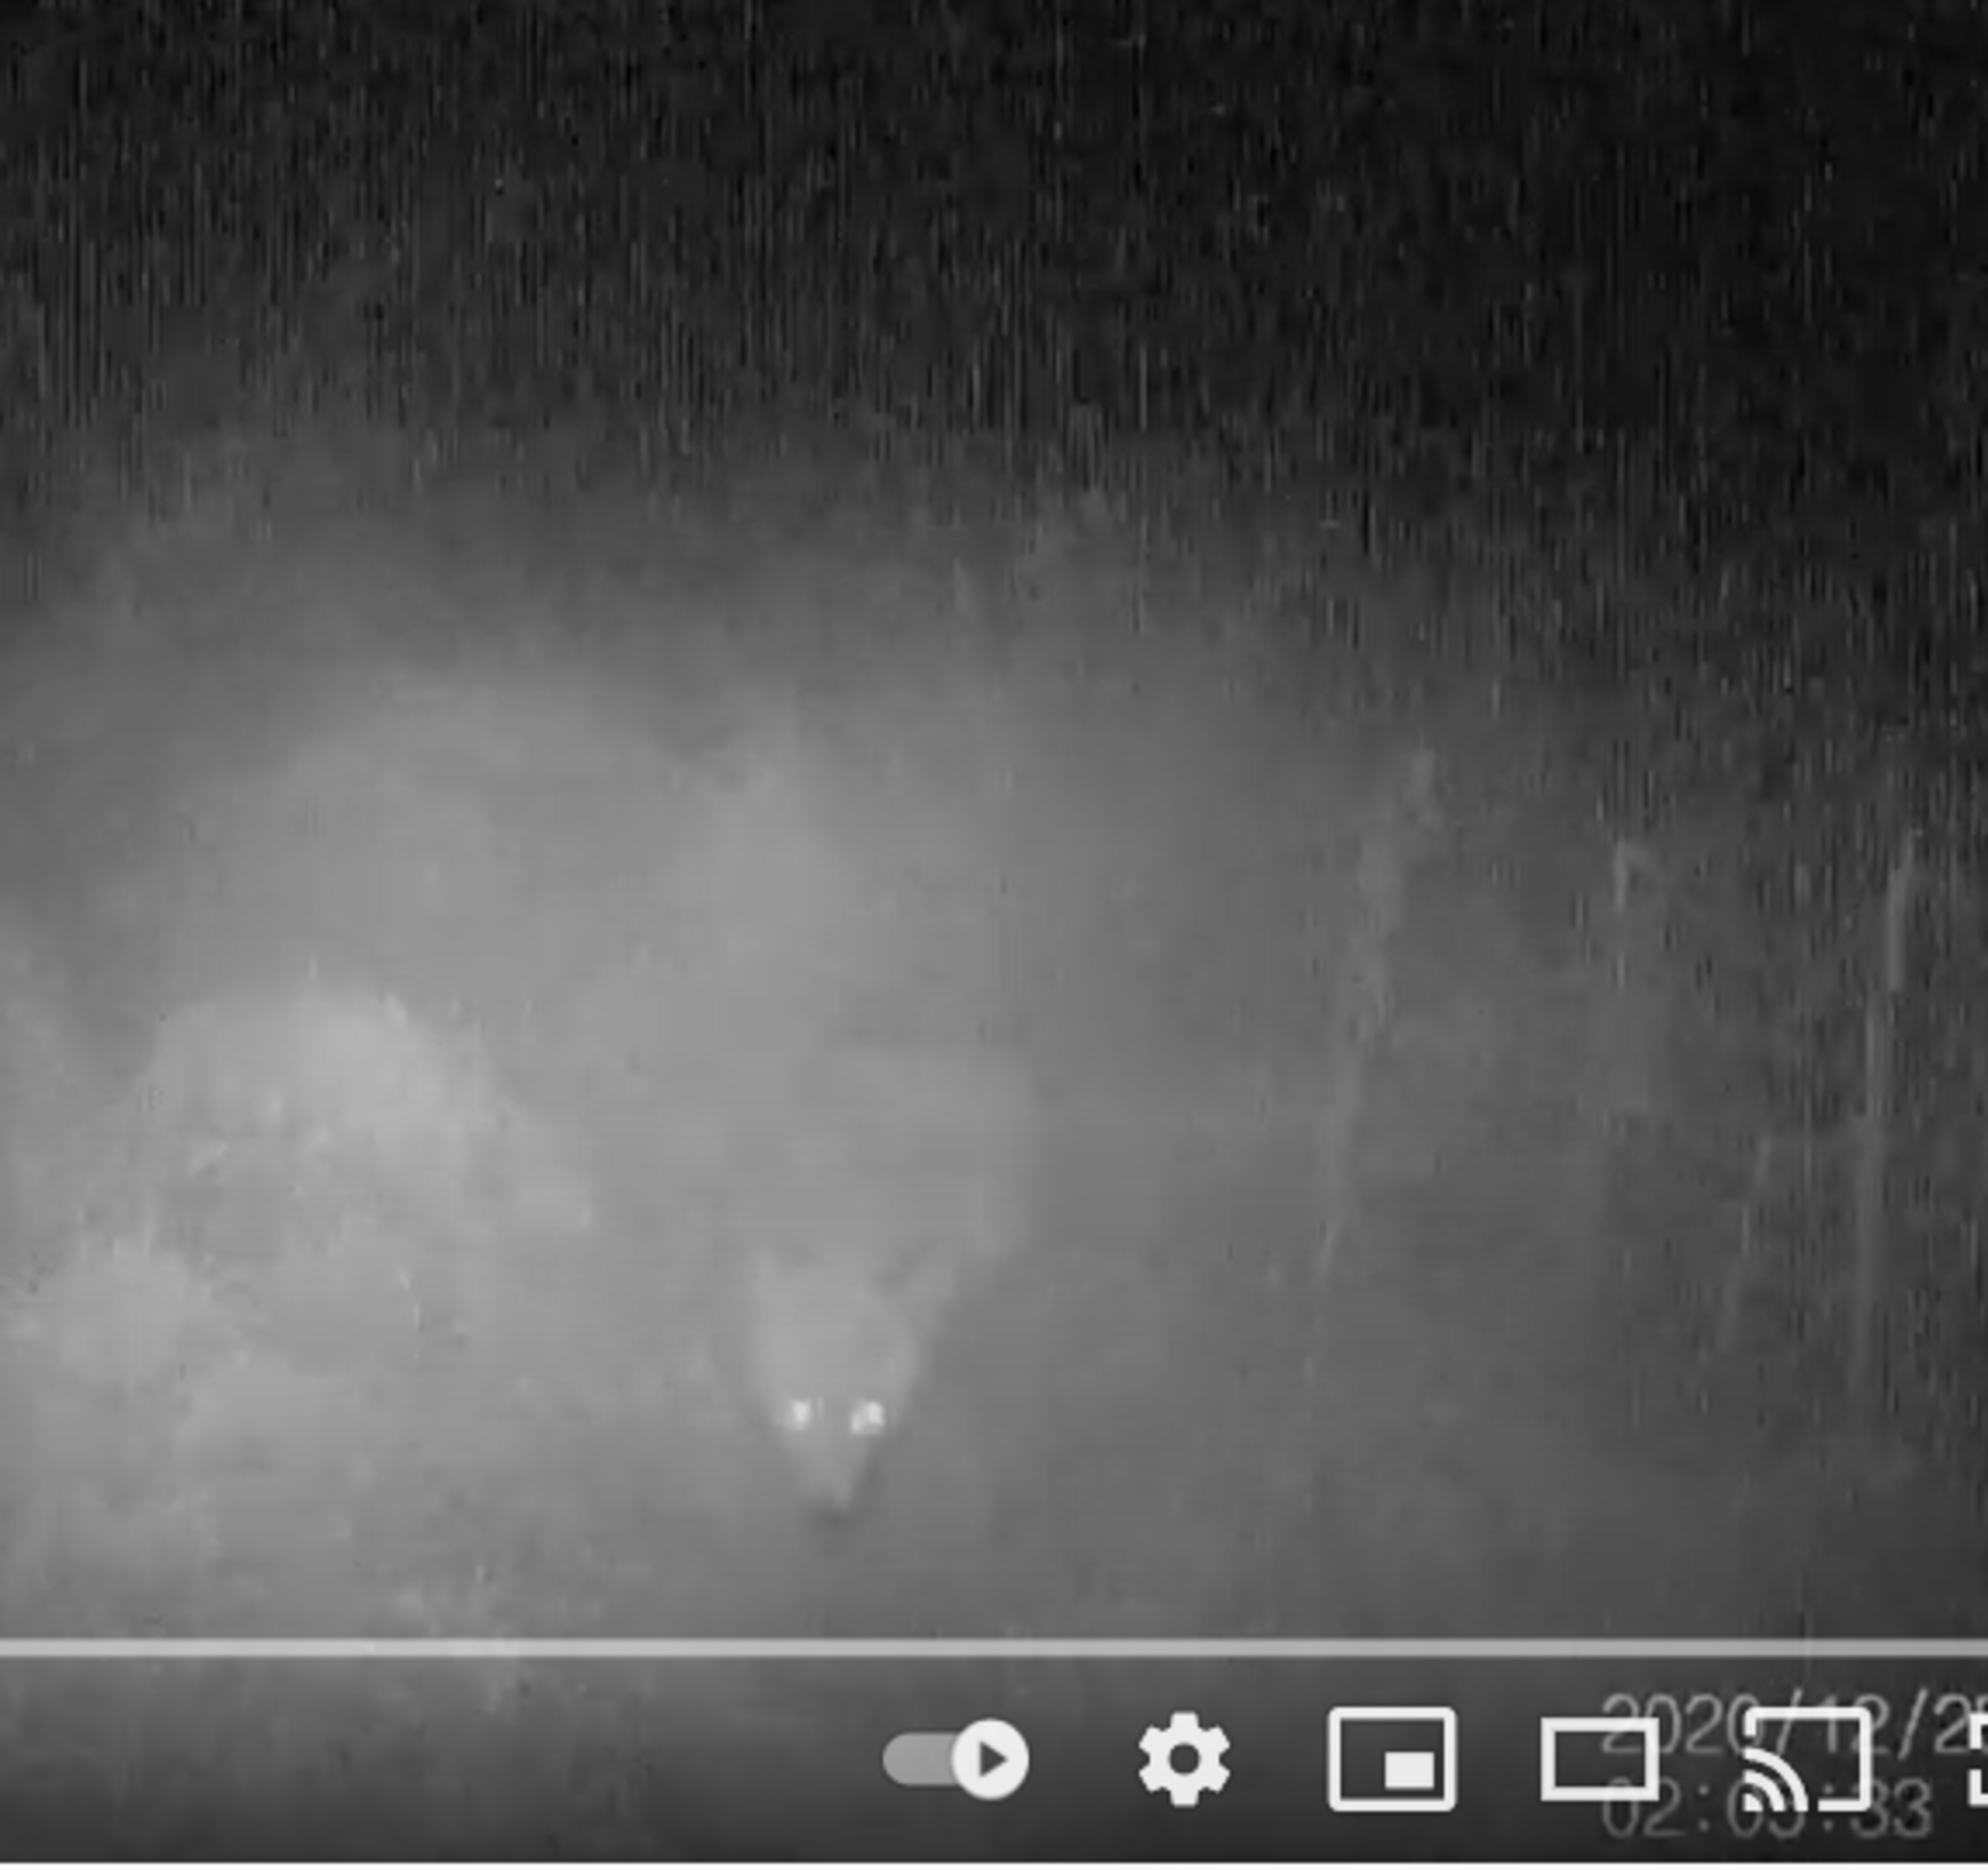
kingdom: Animalia
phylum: Chordata
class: Mammalia
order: Carnivora
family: Canidae
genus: Vulpes
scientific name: Vulpes vulpes
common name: Ræv
